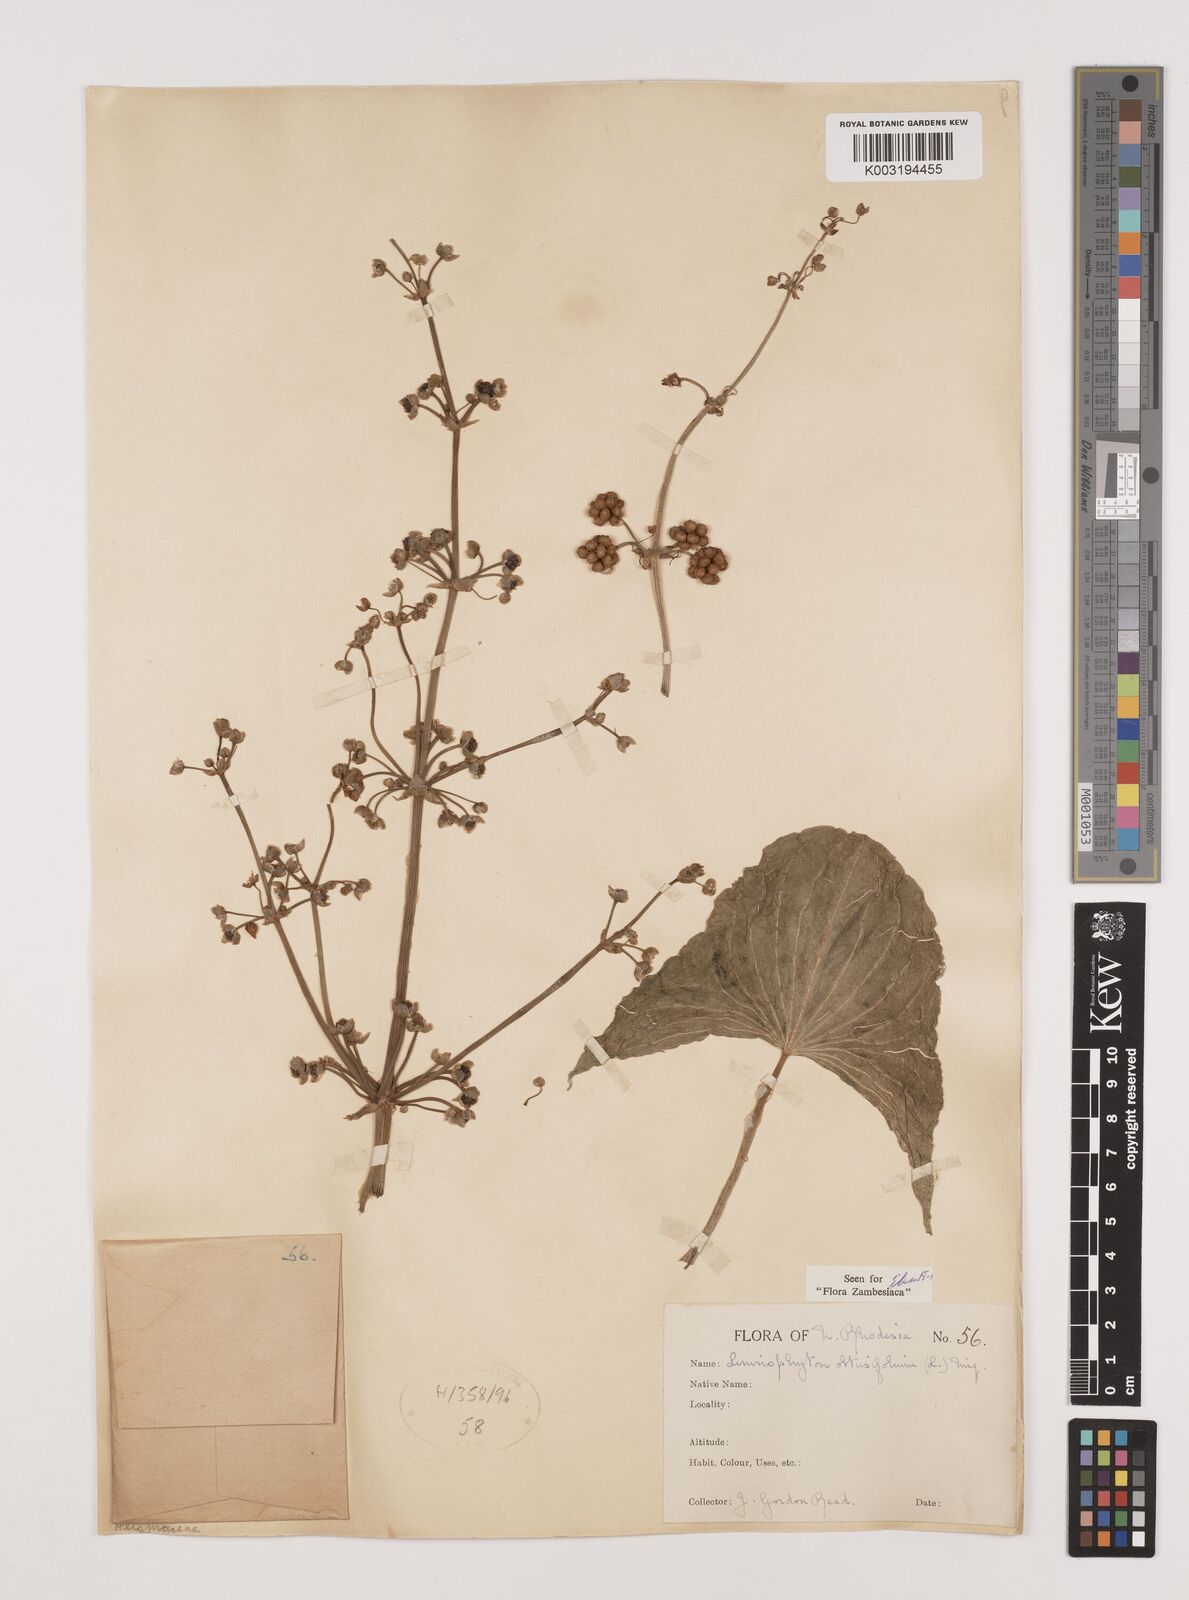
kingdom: Plantae
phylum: Tracheophyta
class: Liliopsida
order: Alismatales
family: Alismataceae
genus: Limnophyton
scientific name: Limnophyton obtusifolium
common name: Arrow head
